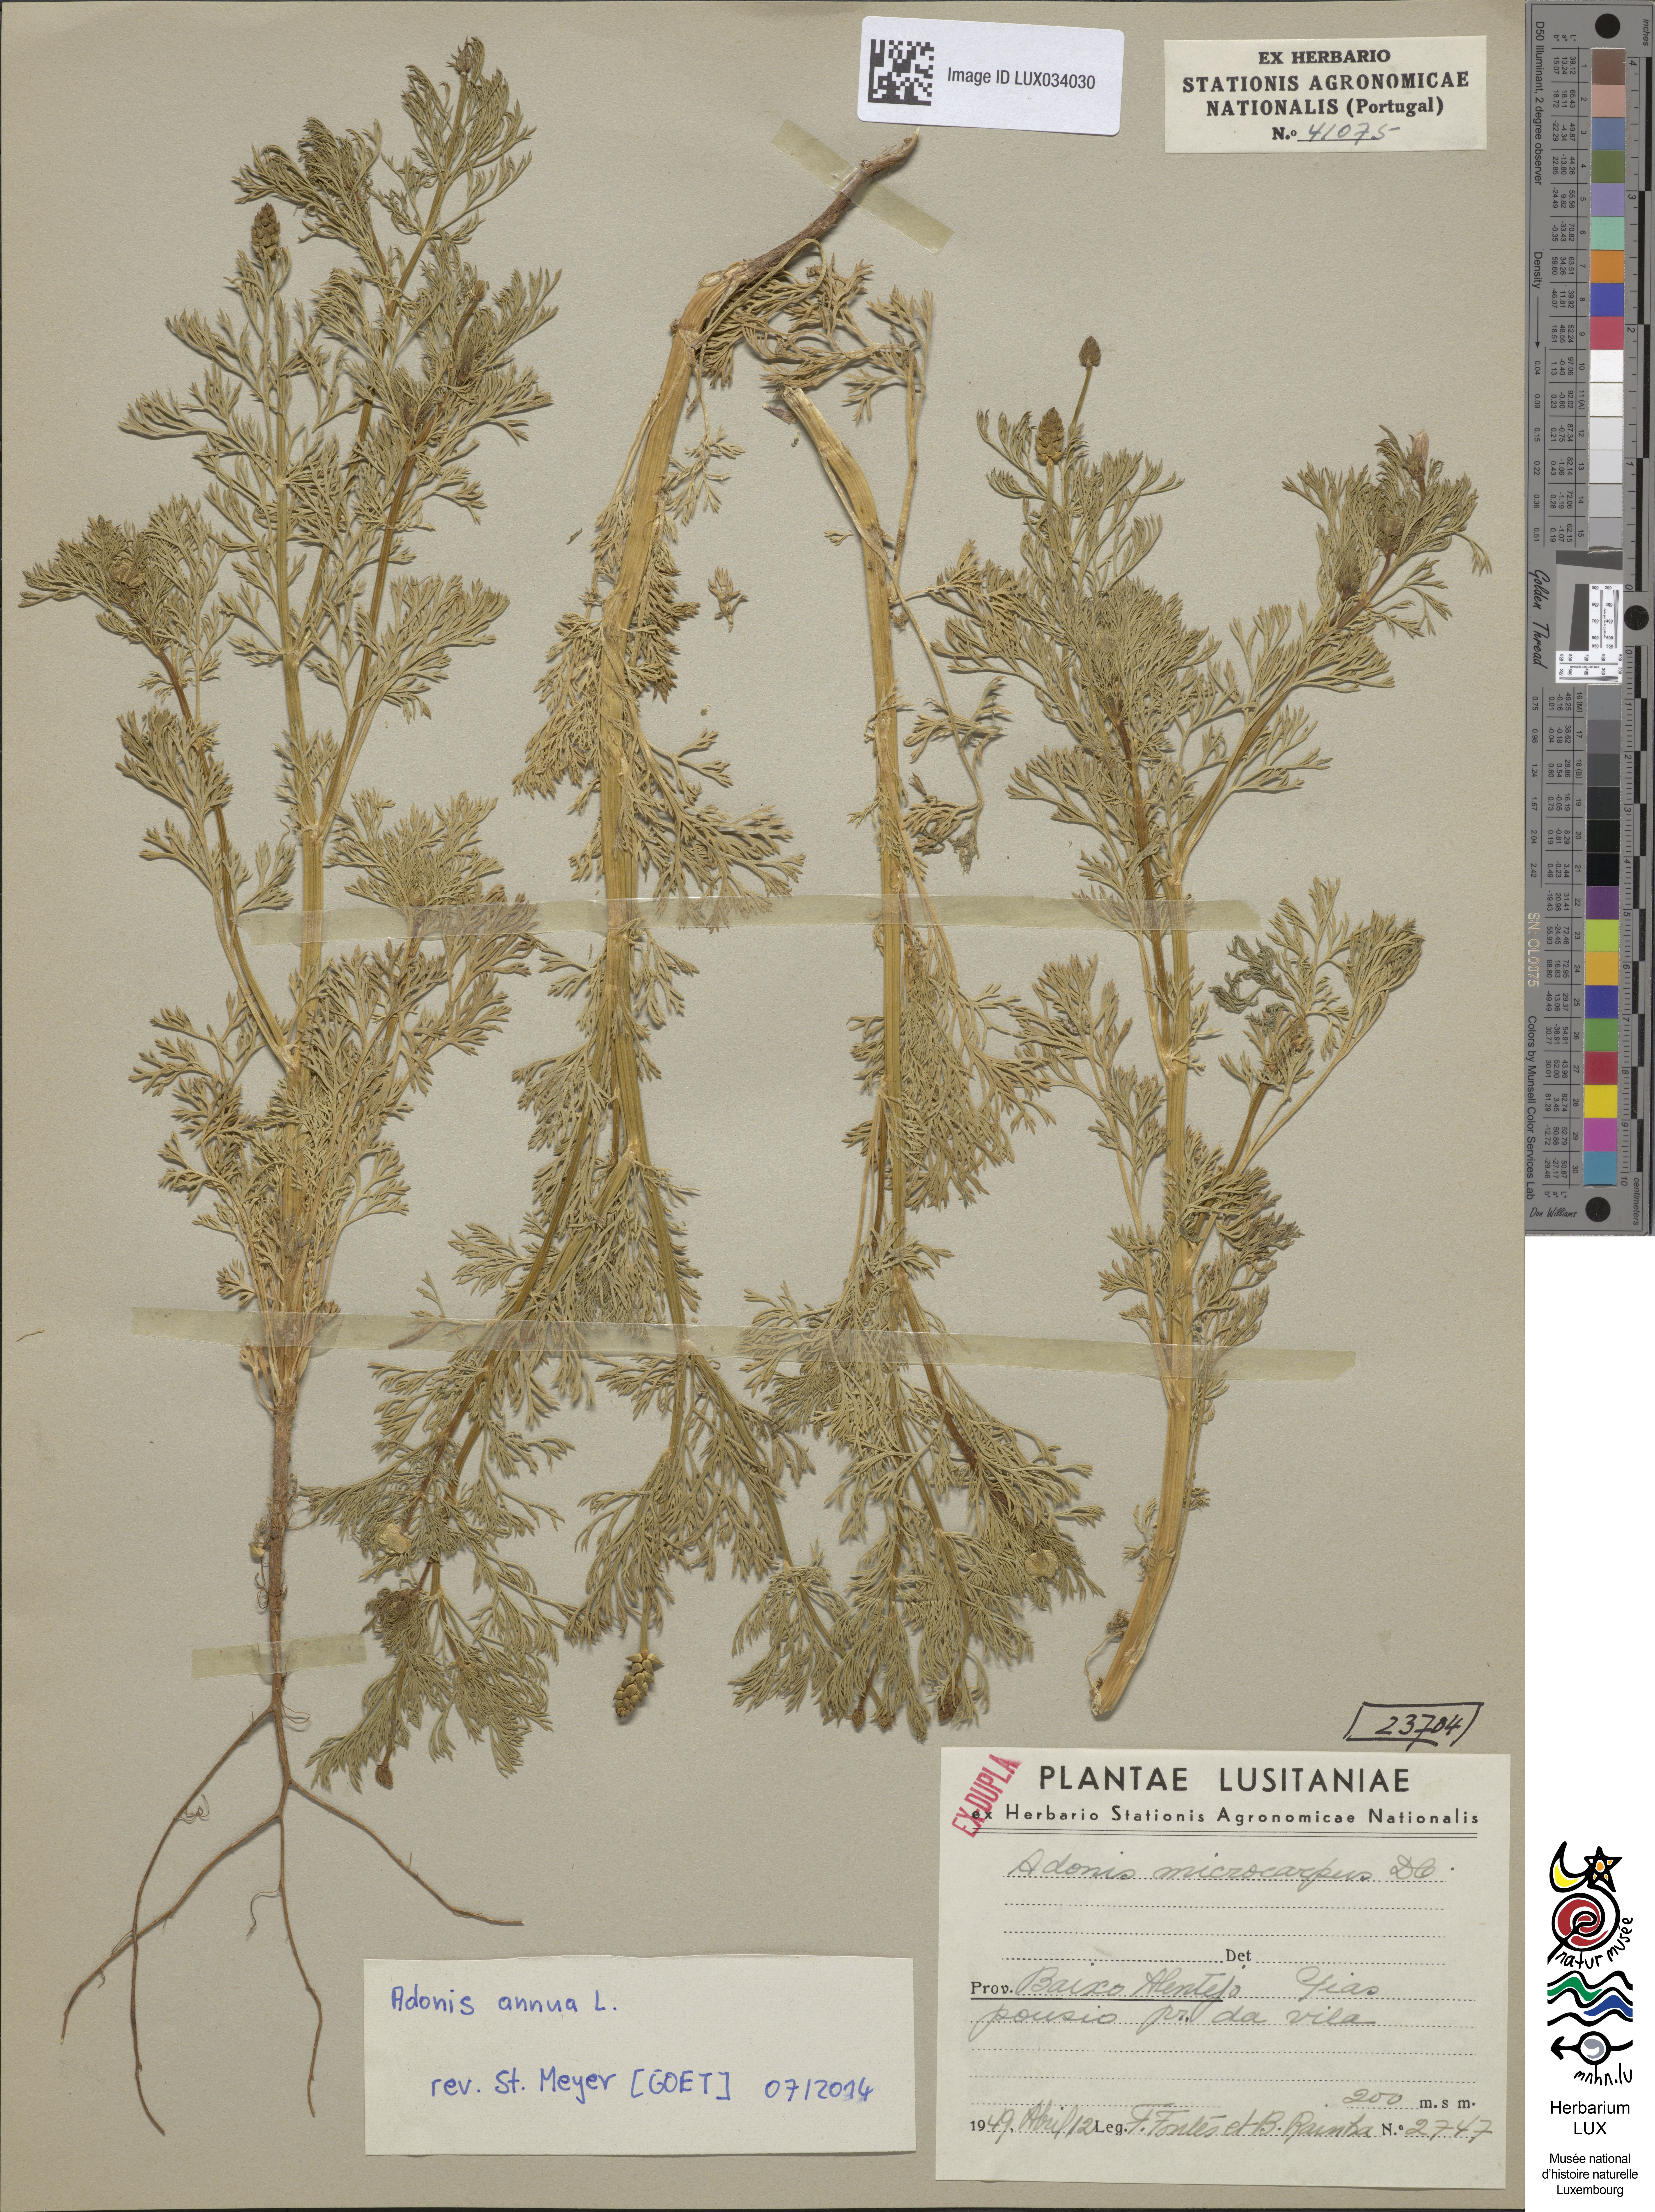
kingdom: Plantae
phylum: Tracheophyta
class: Magnoliopsida
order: Ranunculales
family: Ranunculaceae
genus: Adonis
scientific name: Adonis annua
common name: Pheasant's-eye
